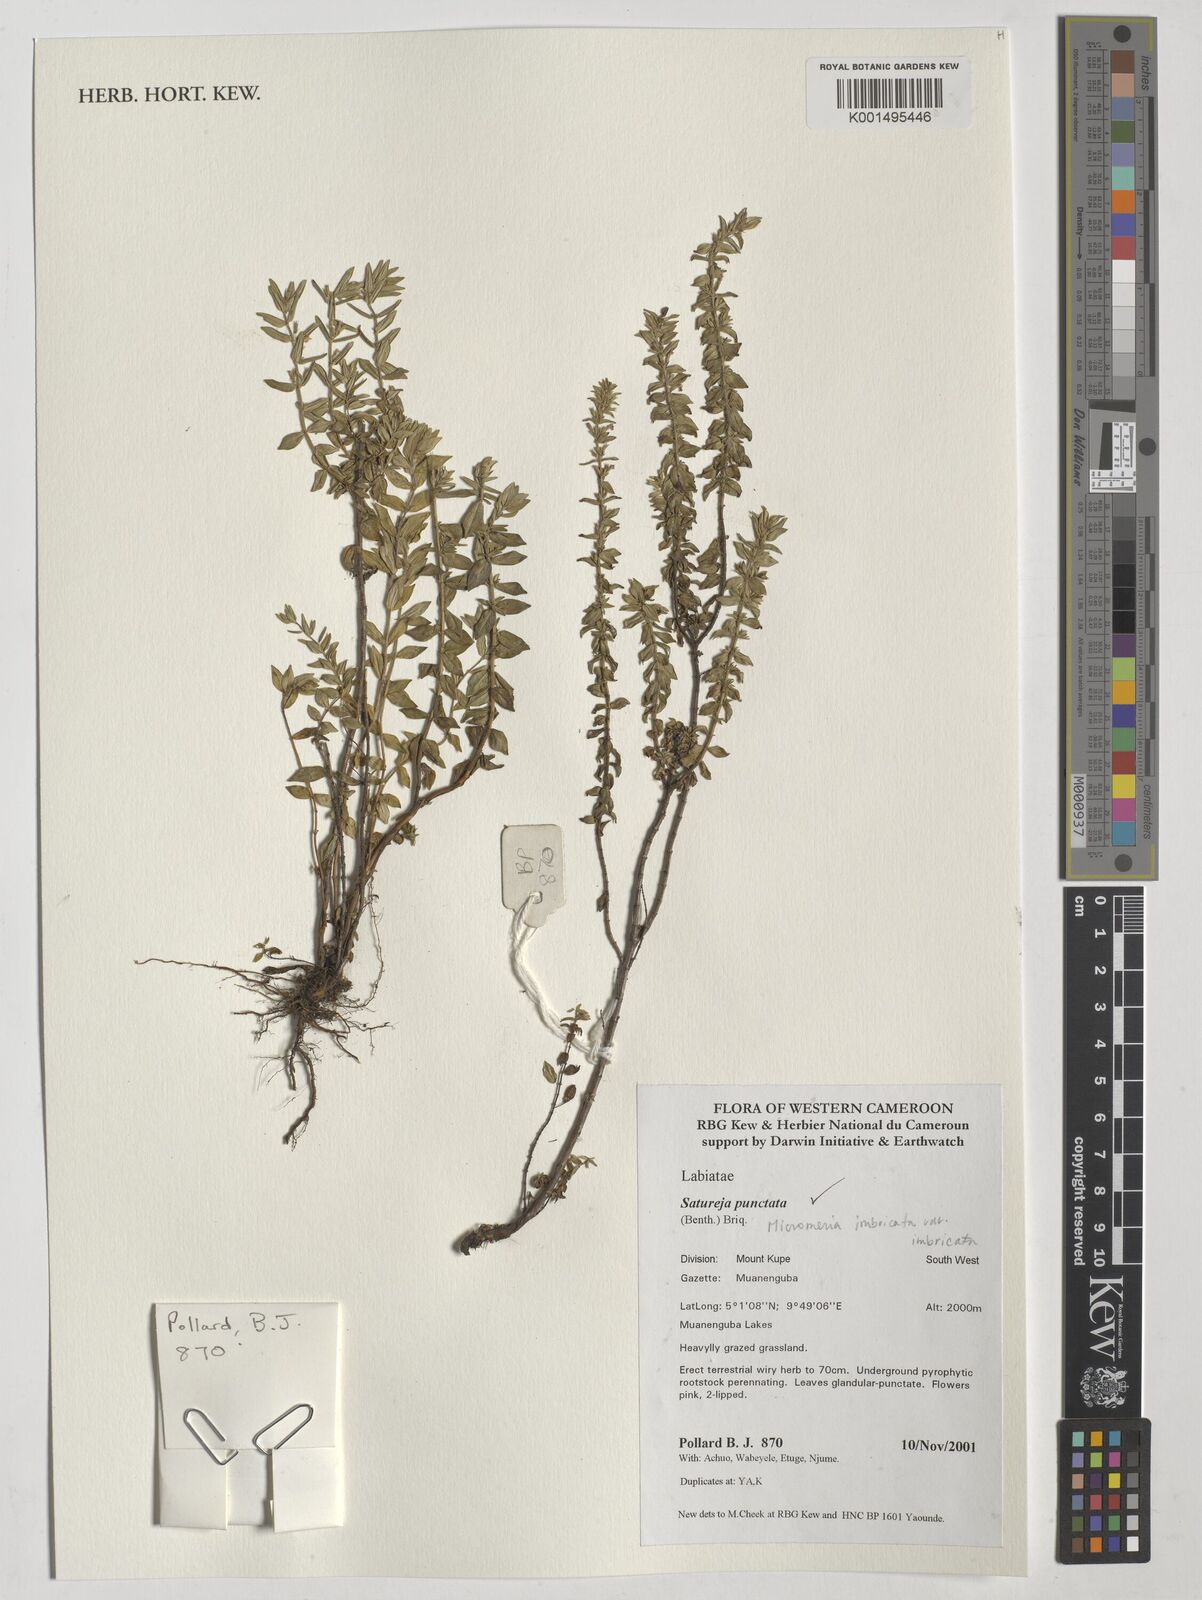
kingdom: Plantae
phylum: Tracheophyta
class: Magnoliopsida
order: Lamiales
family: Lamiaceae
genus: Micromeria
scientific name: Micromeria imbricata
